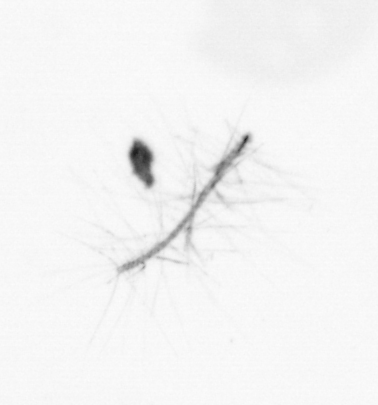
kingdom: Chromista
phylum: Ochrophyta
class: Bacillariophyceae
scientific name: Bacillariophyceae
